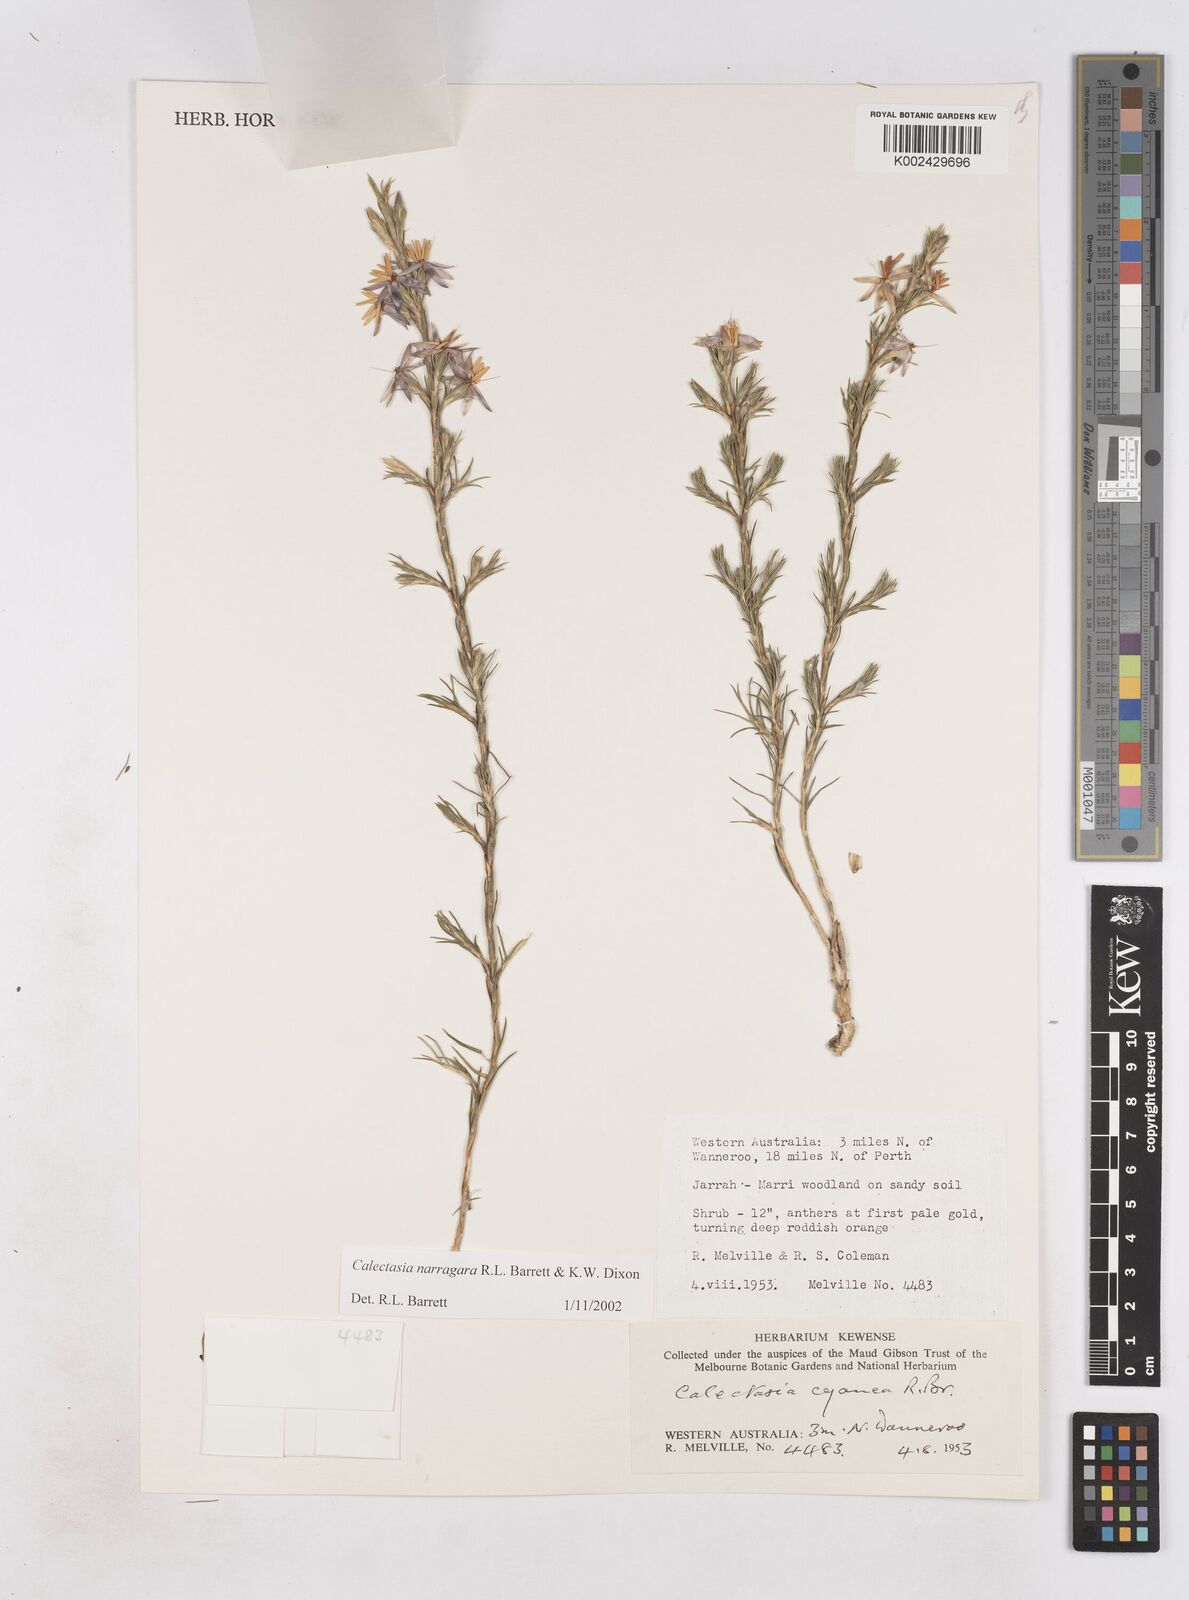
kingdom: Plantae
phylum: Tracheophyta
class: Liliopsida
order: Arecales
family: Dasypogonaceae
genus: Calectasia
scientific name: Calectasia narragara
